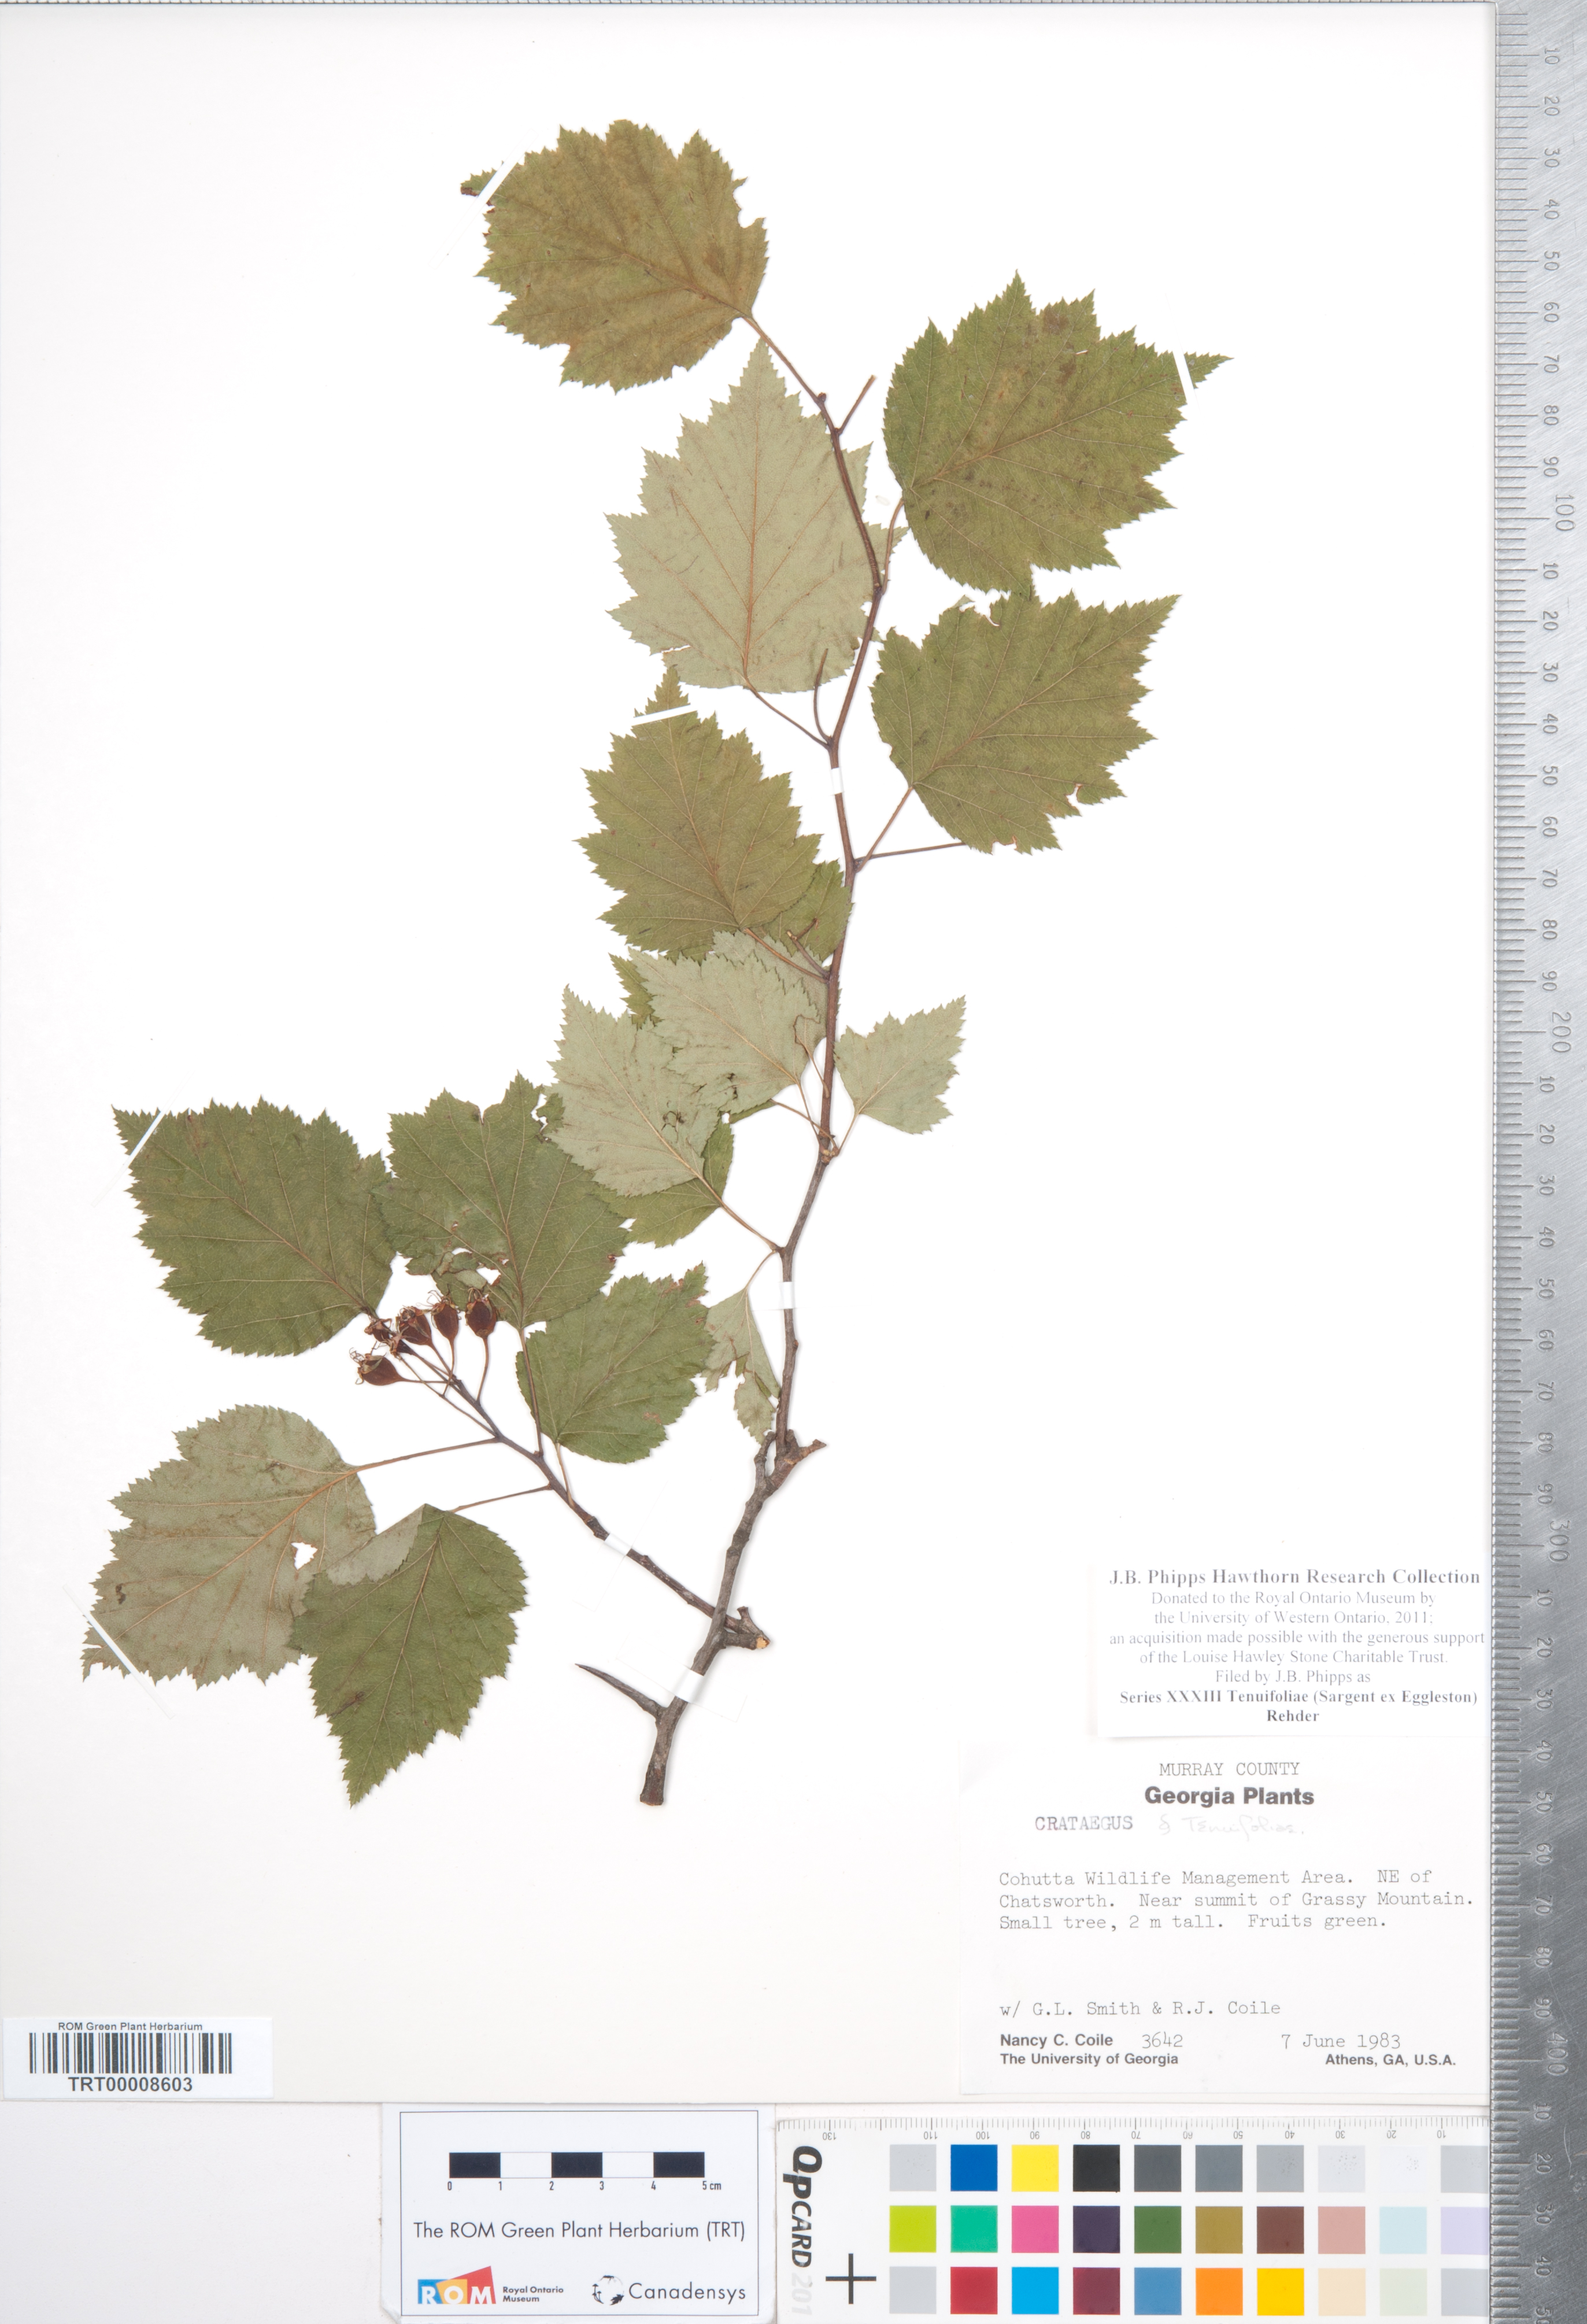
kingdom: Plantae
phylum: Tracheophyta
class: Magnoliopsida
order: Rosales
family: Rosaceae
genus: Crataegus
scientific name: Crataegus
